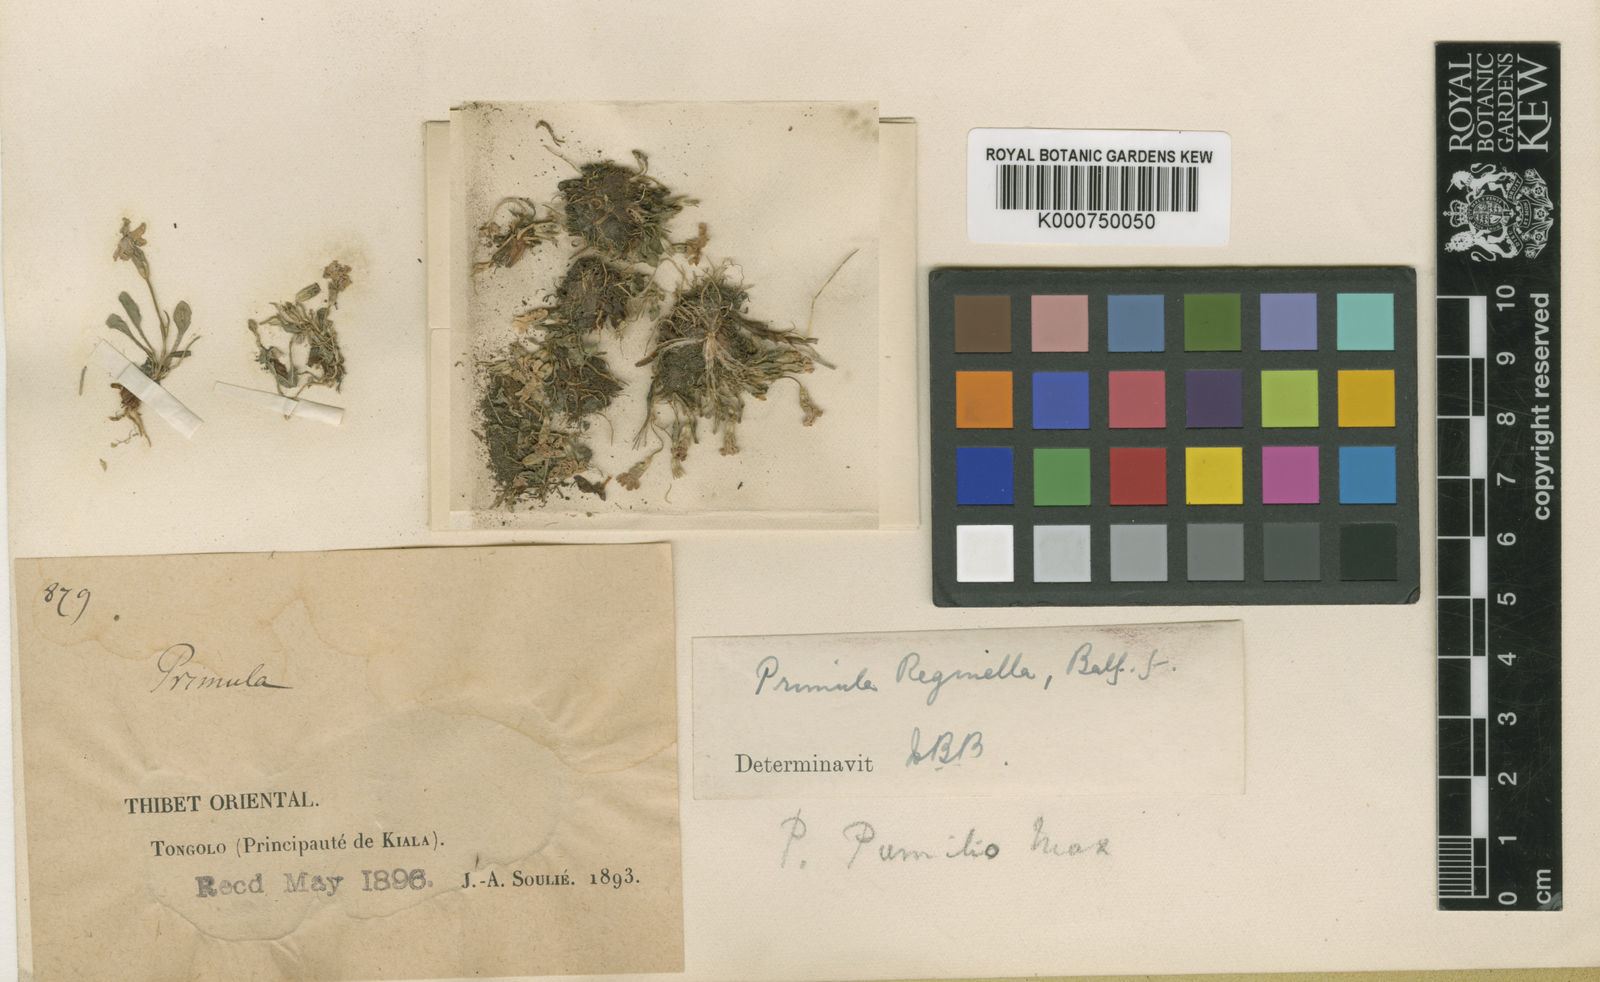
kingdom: Plantae
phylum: Tracheophyta
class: Magnoliopsida
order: Ericales
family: Primulaceae
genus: Primula
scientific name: Primula fasciculata
